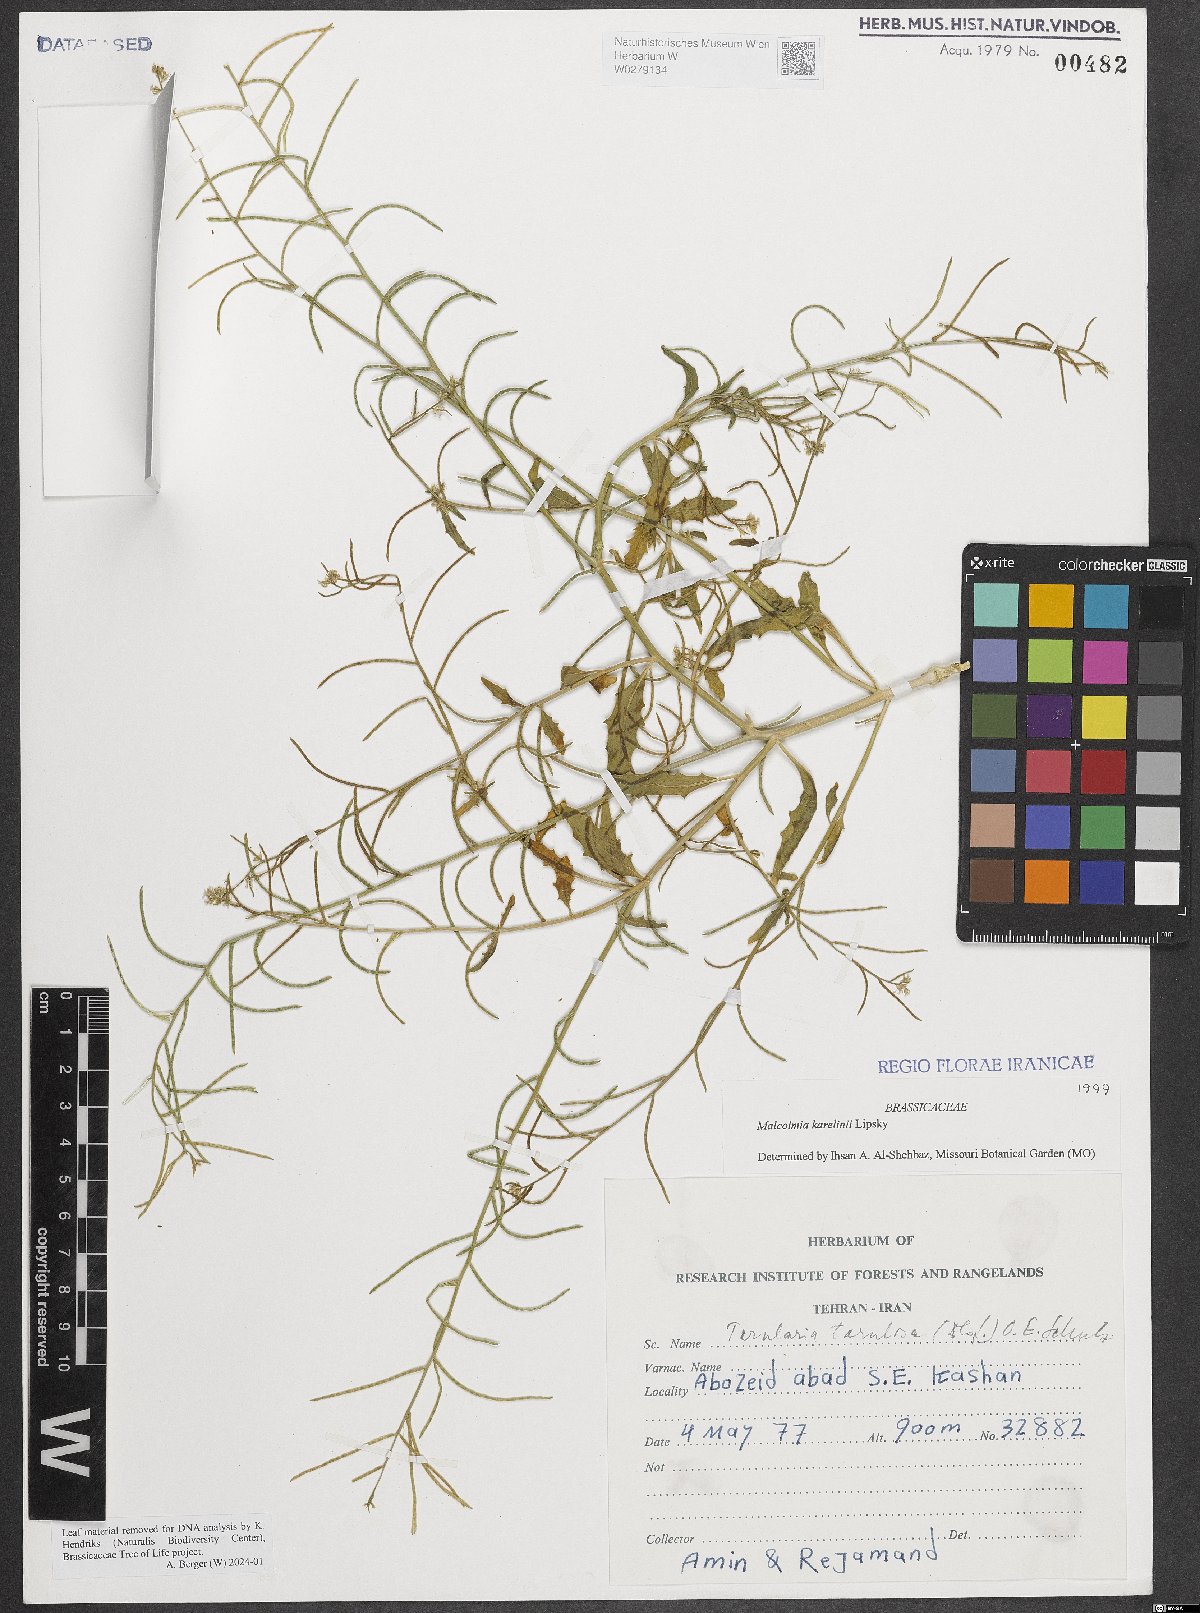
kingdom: Plantae
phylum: Tracheophyta
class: Magnoliopsida
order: Brassicales
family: Brassicaceae
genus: Strigosella
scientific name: Strigosella brevipes
